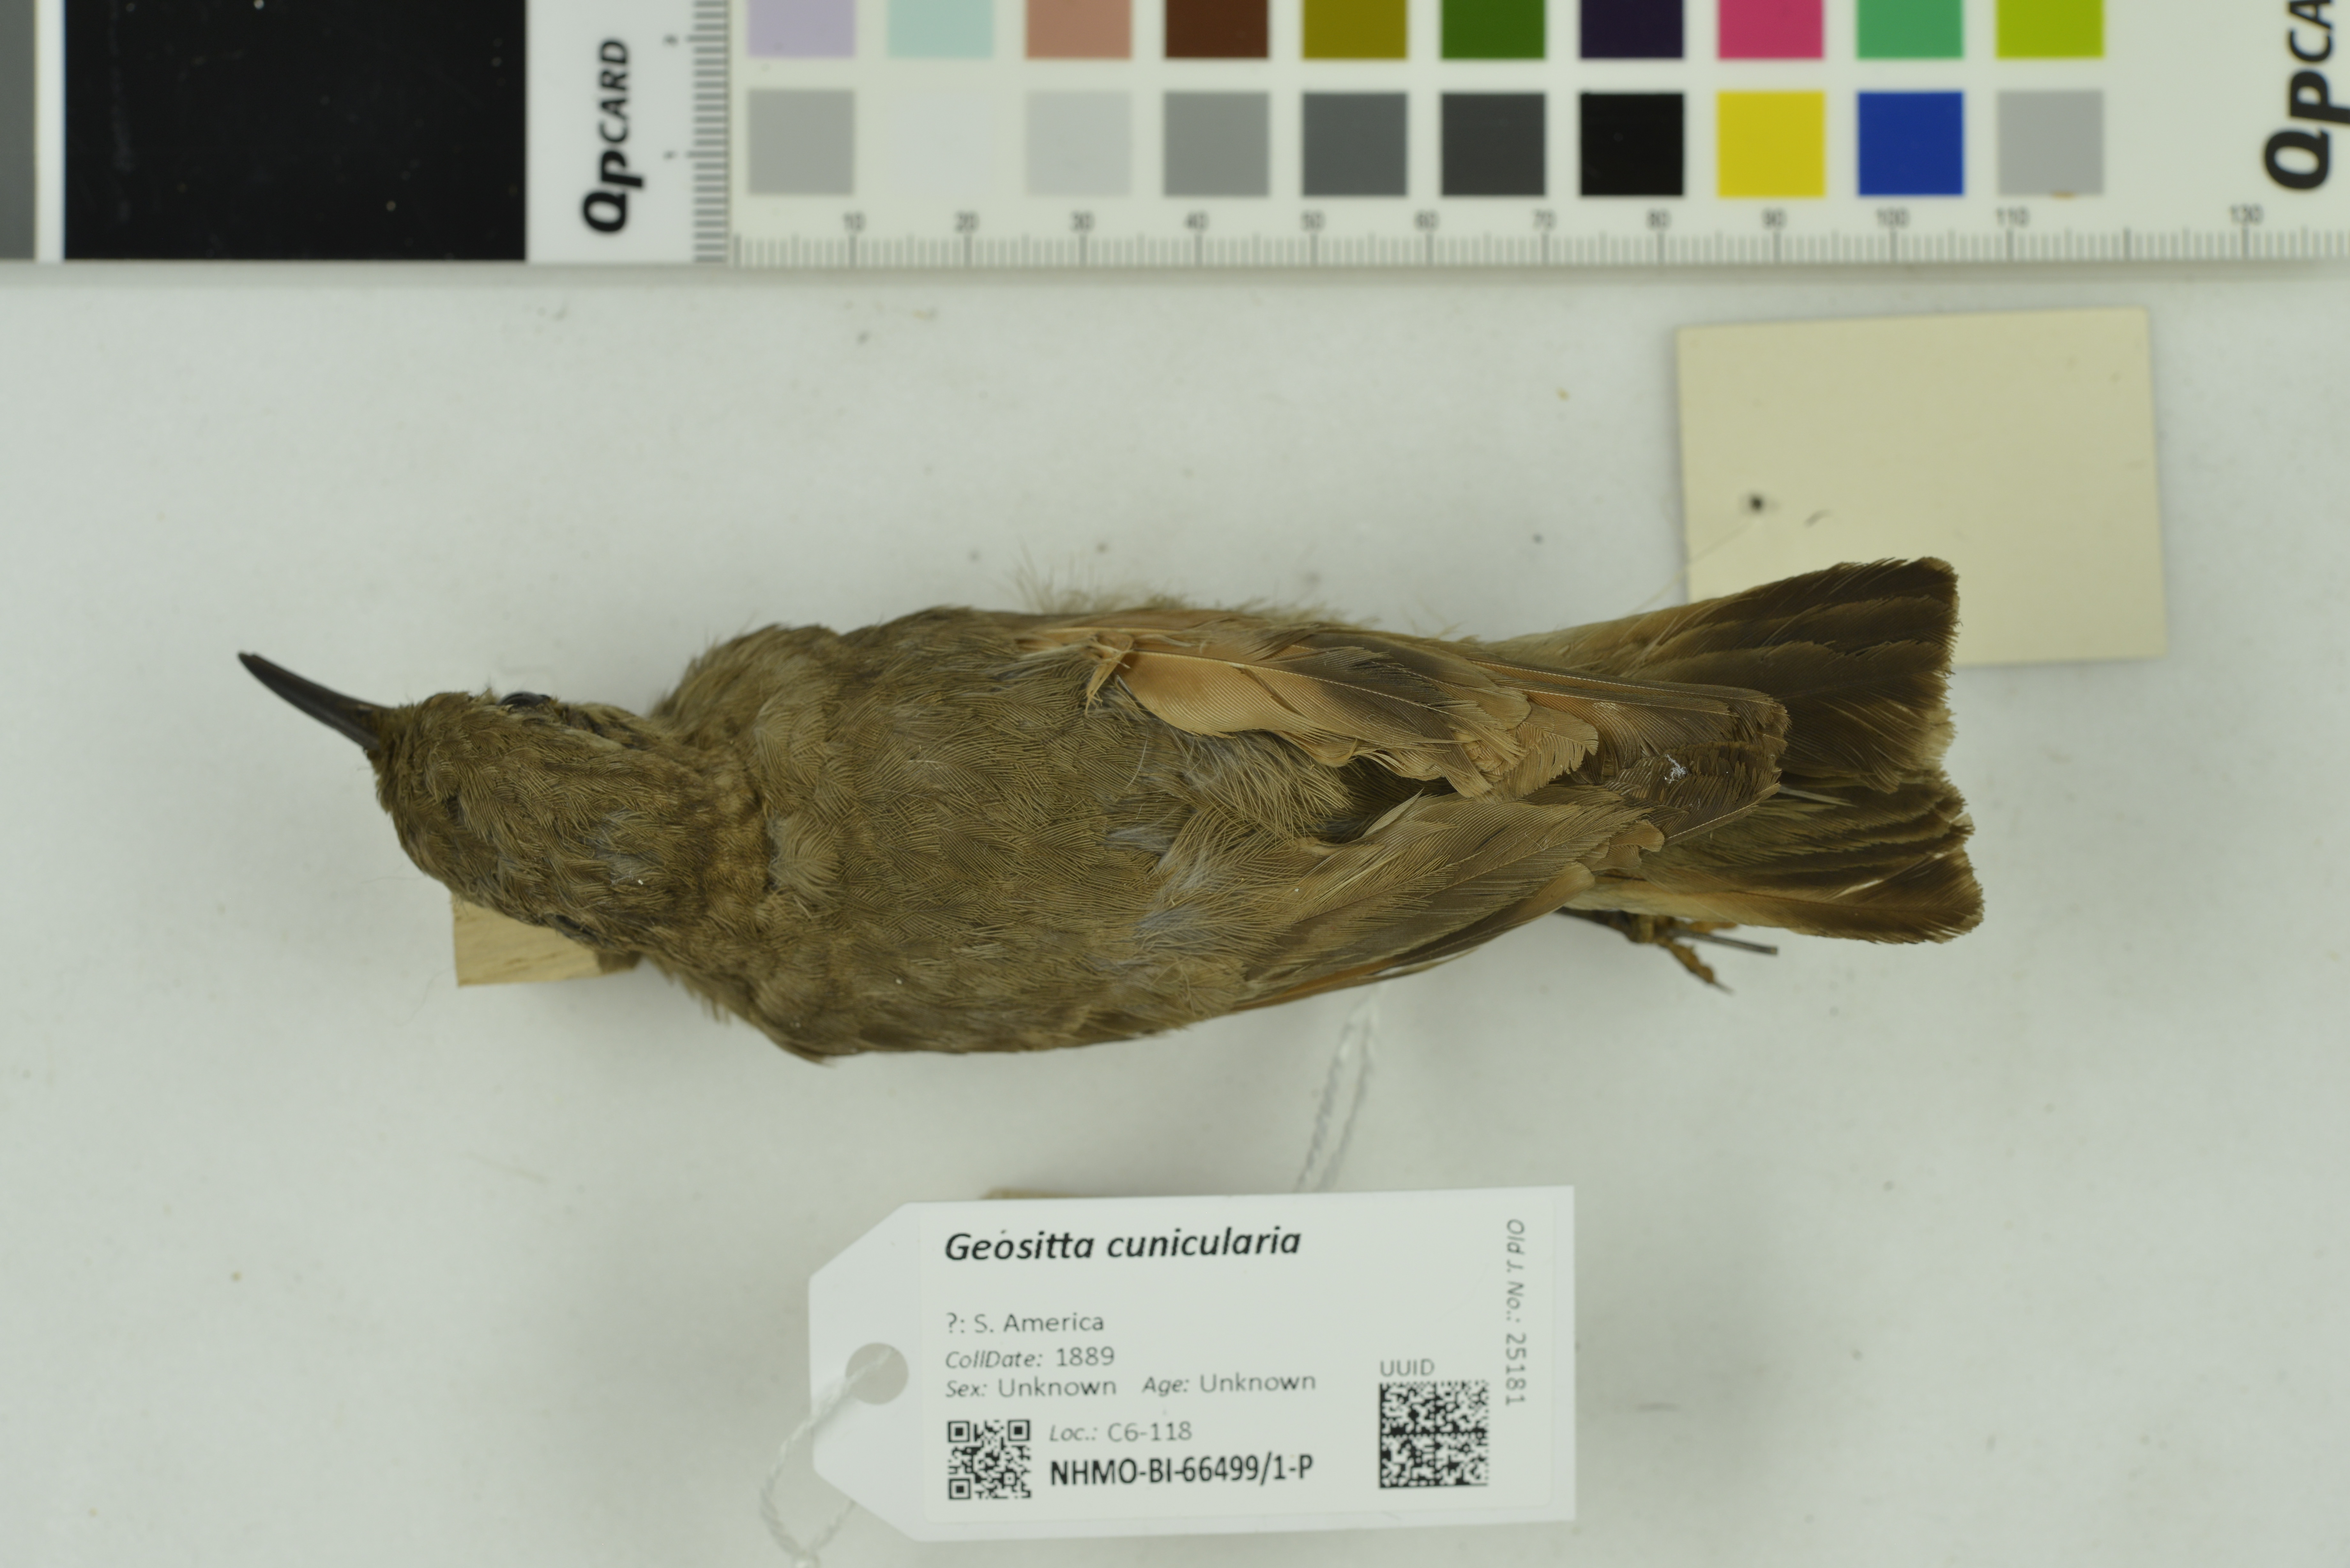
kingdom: Animalia
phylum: Chordata
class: Aves
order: Passeriformes
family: Furnariidae
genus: Geositta
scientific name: Geositta cunicularia
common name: Common miner
